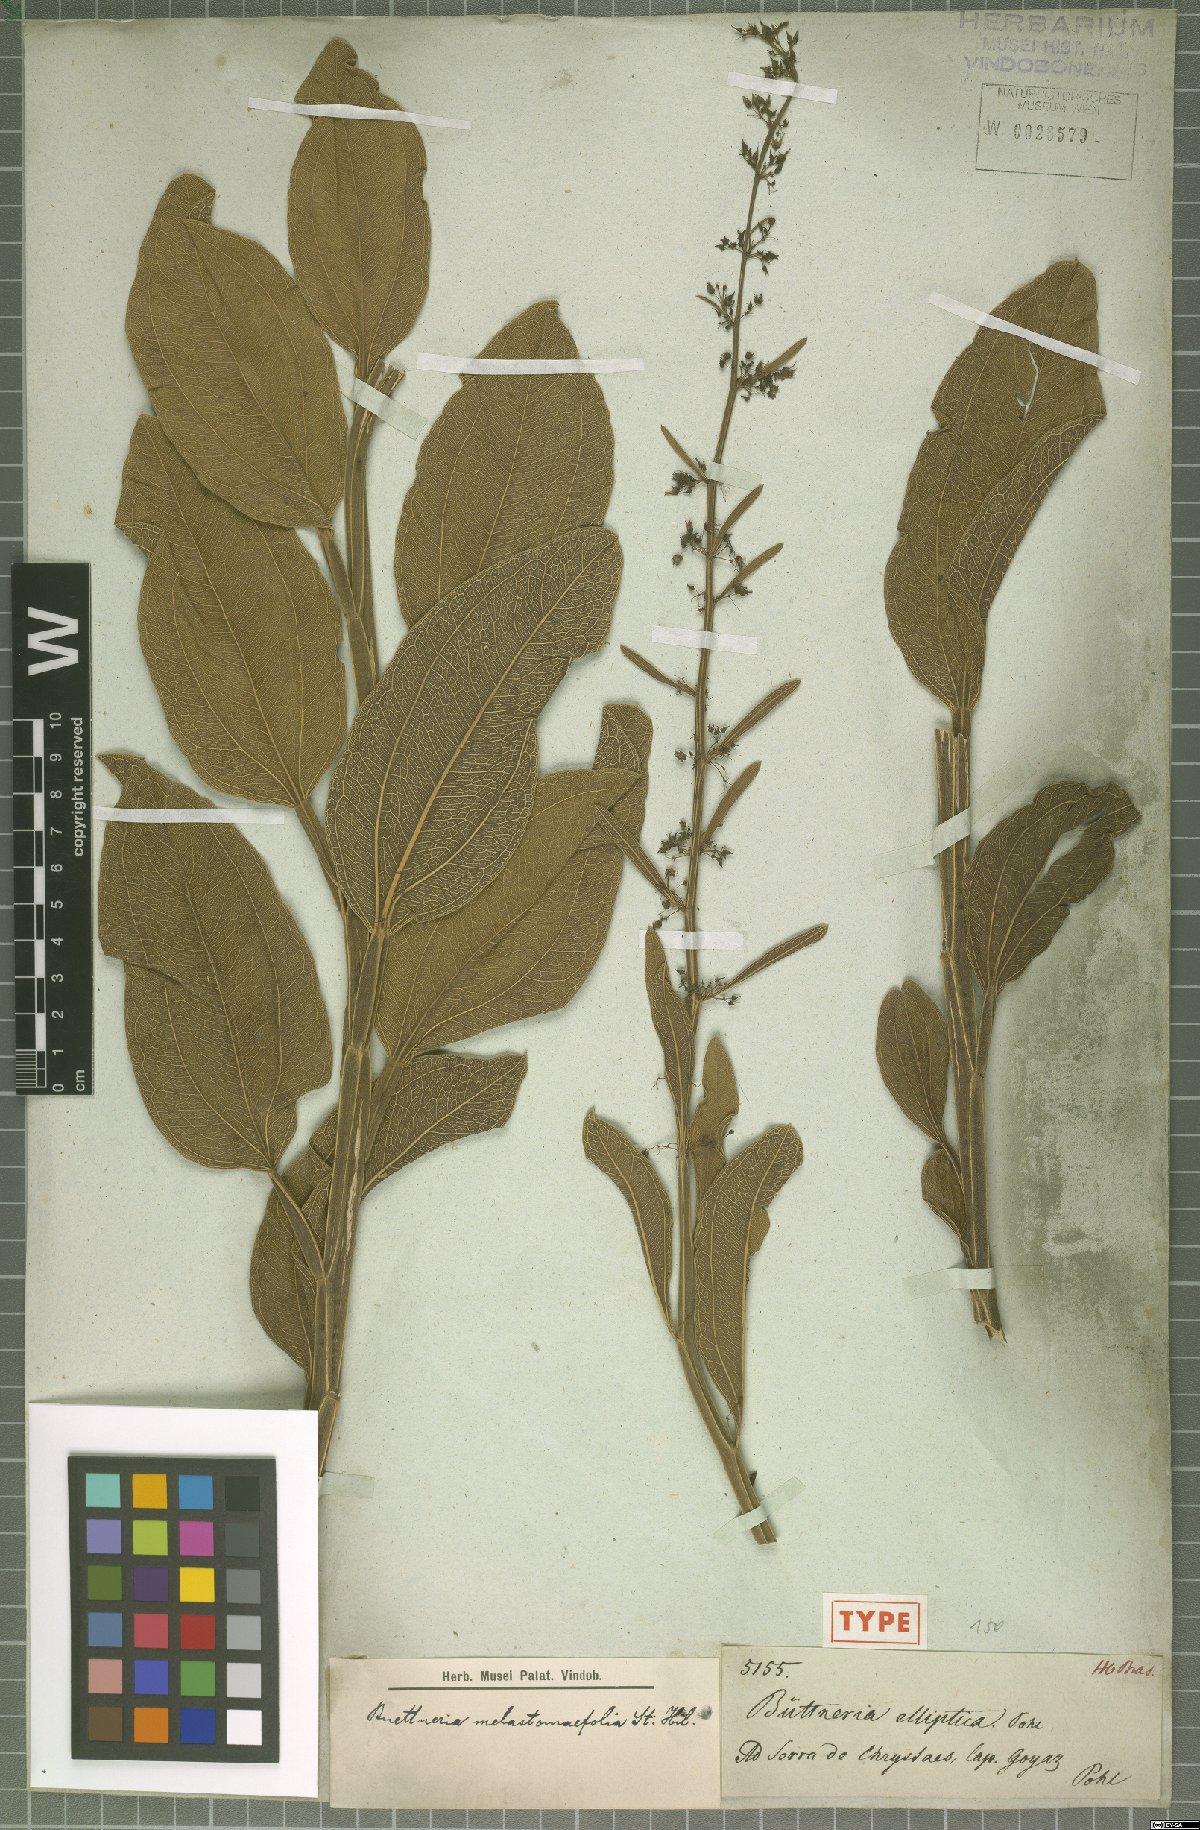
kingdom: Plantae
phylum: Tracheophyta
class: Magnoliopsida
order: Malvales
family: Malvaceae
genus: Byttneria
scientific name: Byttneria elliptica
